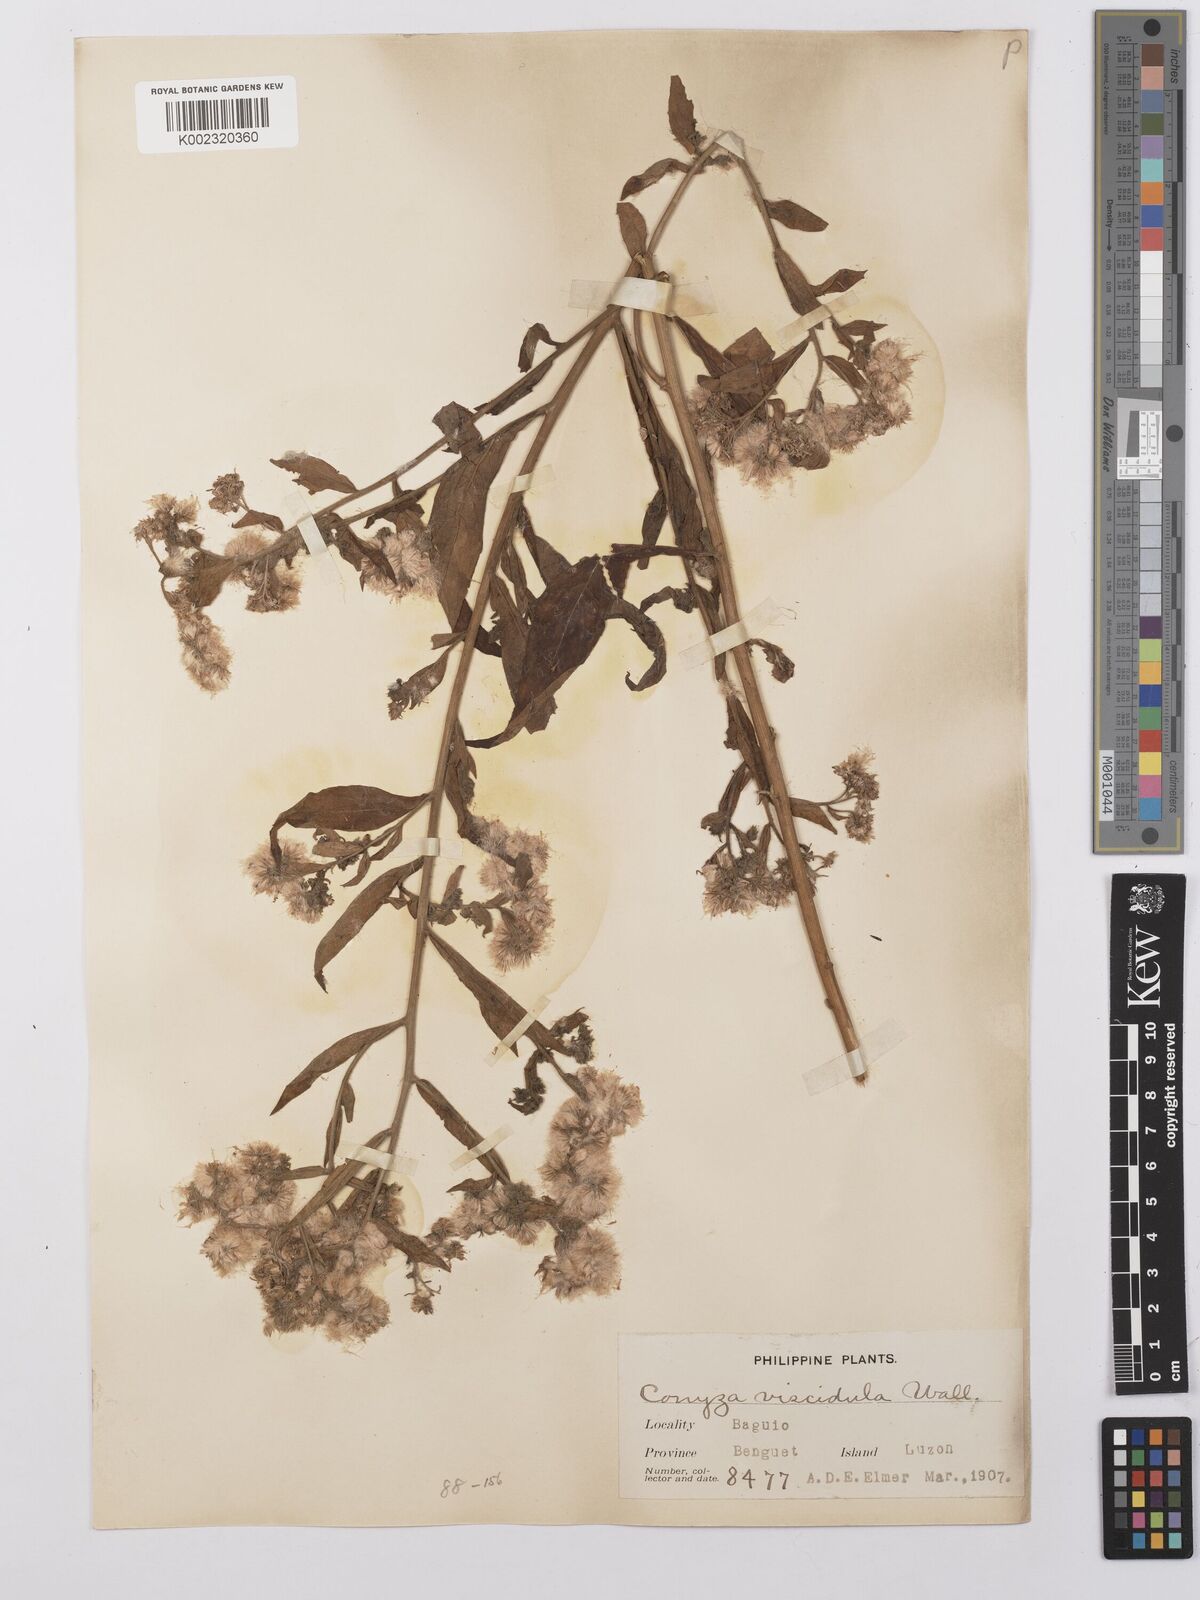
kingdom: Plantae
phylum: Tracheophyta
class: Magnoliopsida
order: Asterales
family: Asteraceae
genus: Eschenbachia
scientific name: Eschenbachia leucantha
